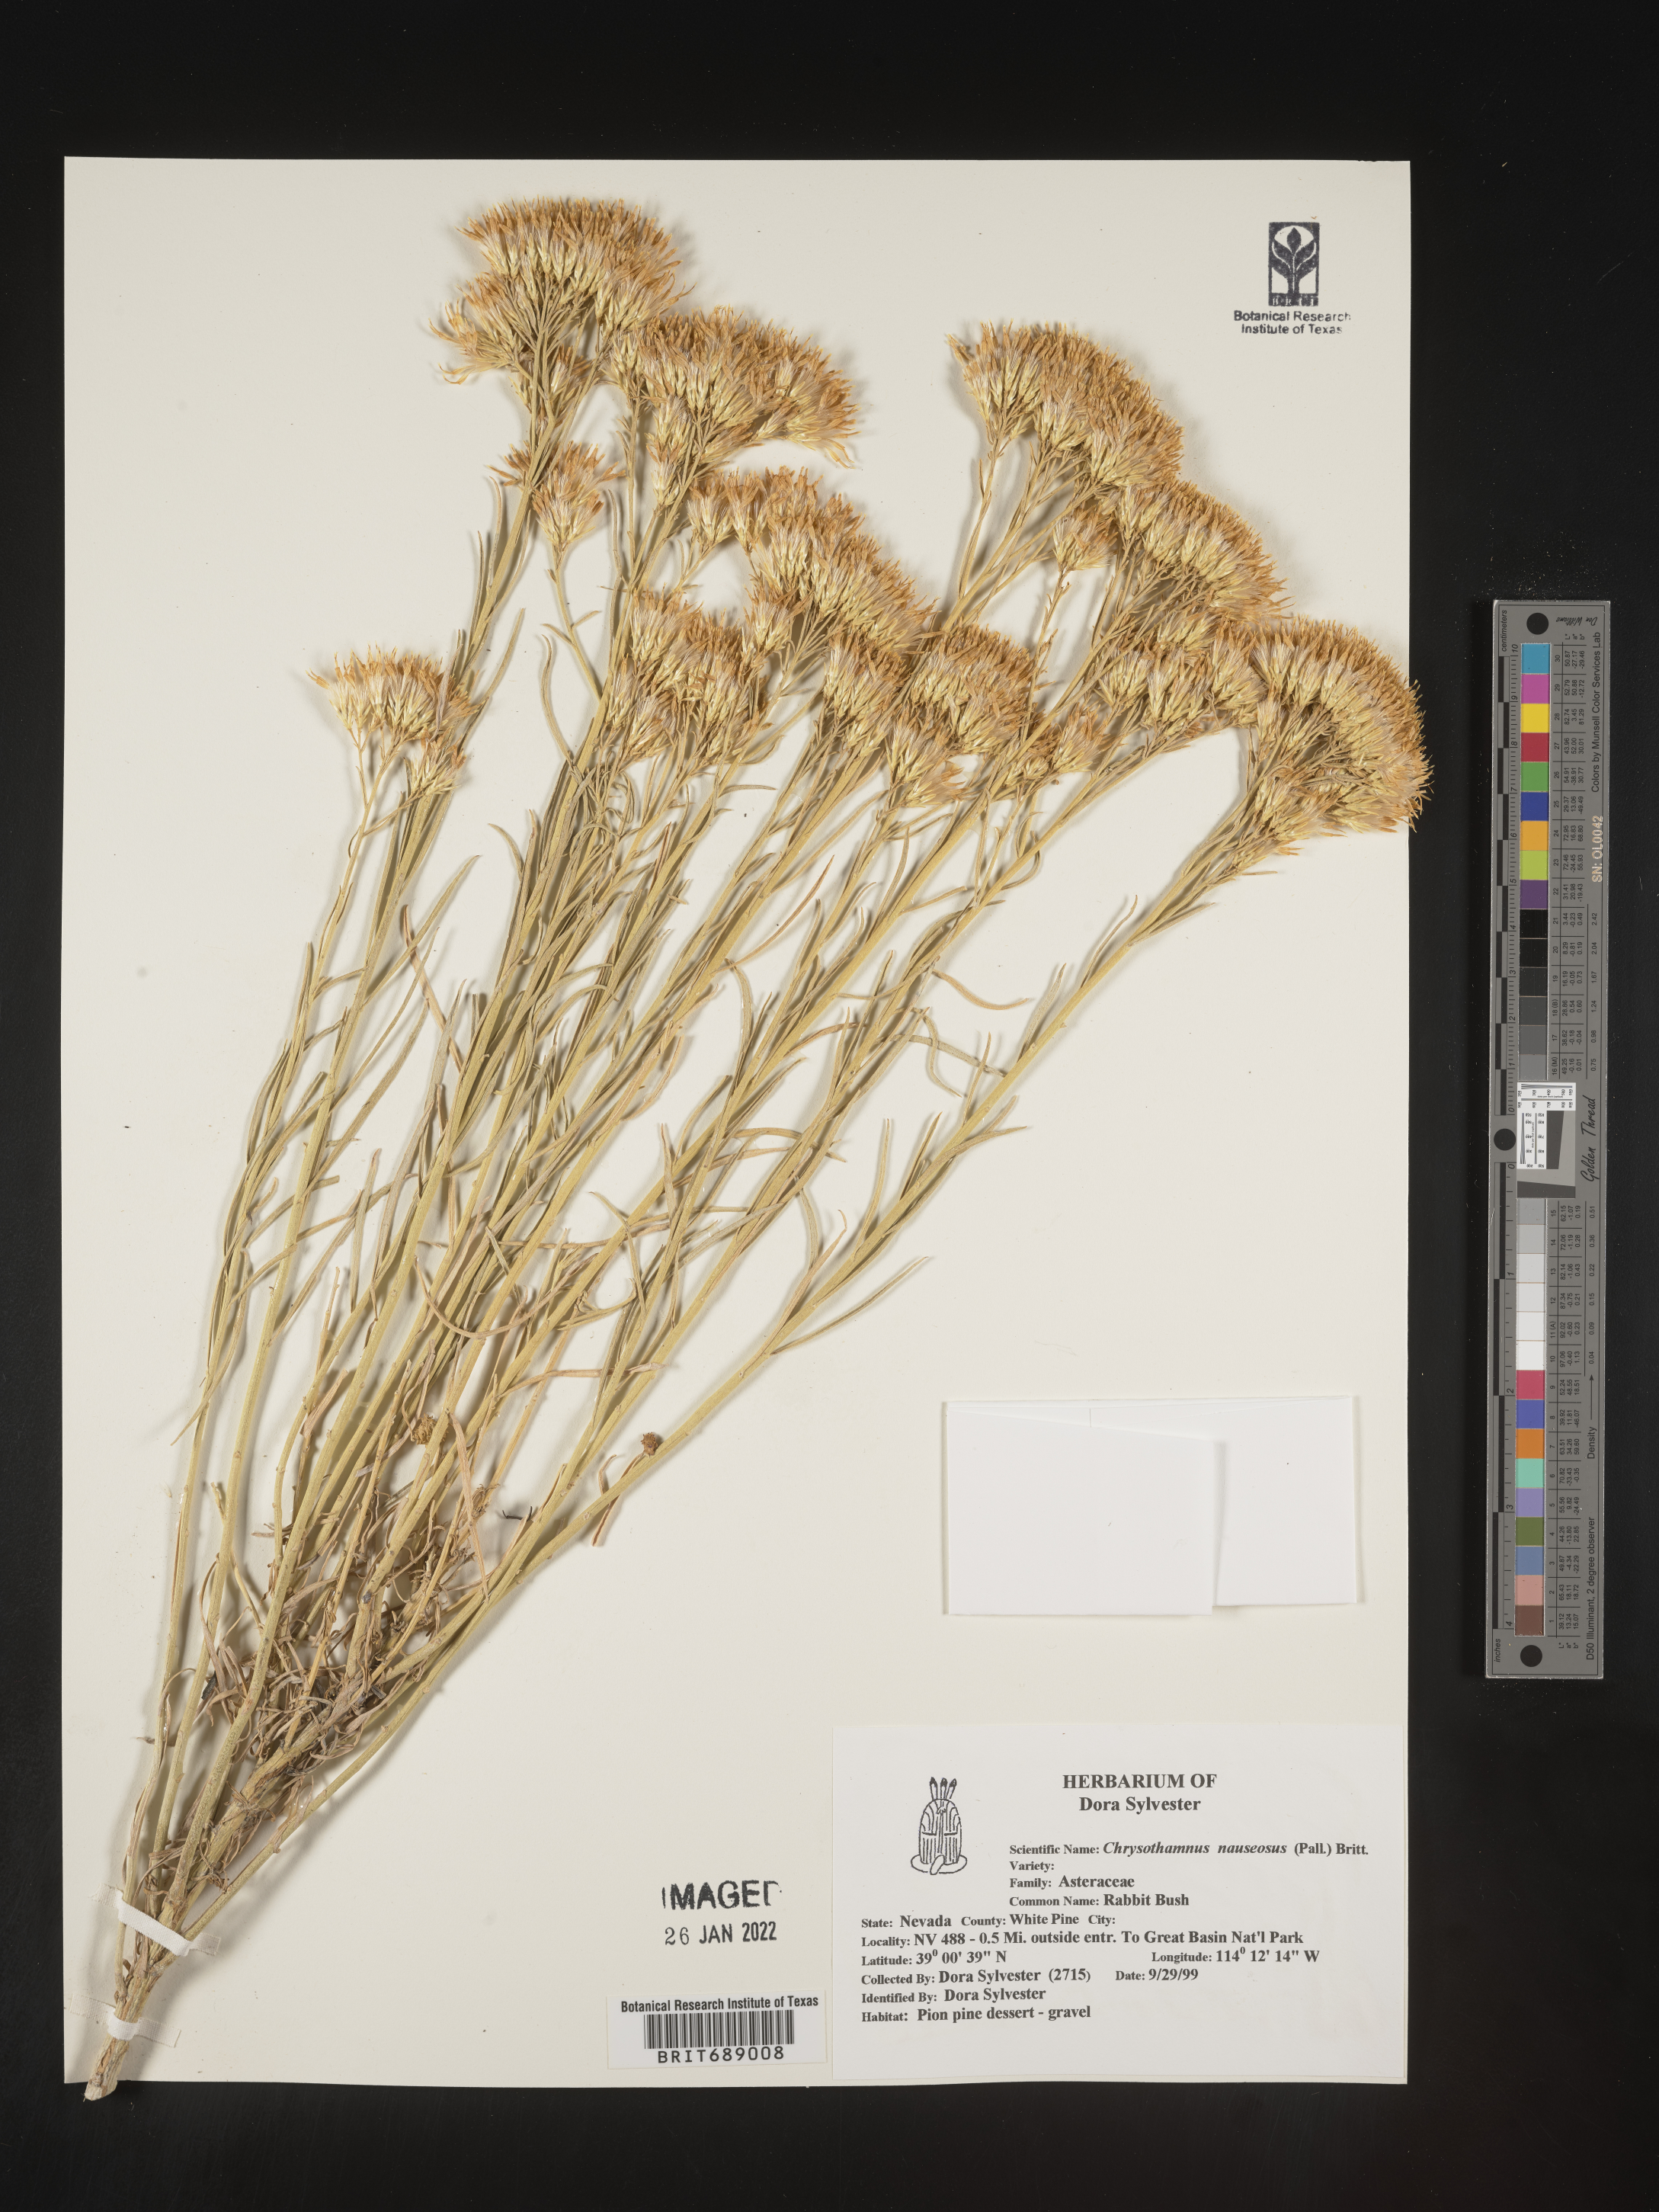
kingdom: Plantae
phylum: Tracheophyta
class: Magnoliopsida
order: Asterales
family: Asteraceae
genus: Ericameria
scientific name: Ericameria nauseosa
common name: Rubber rabbitbrush
